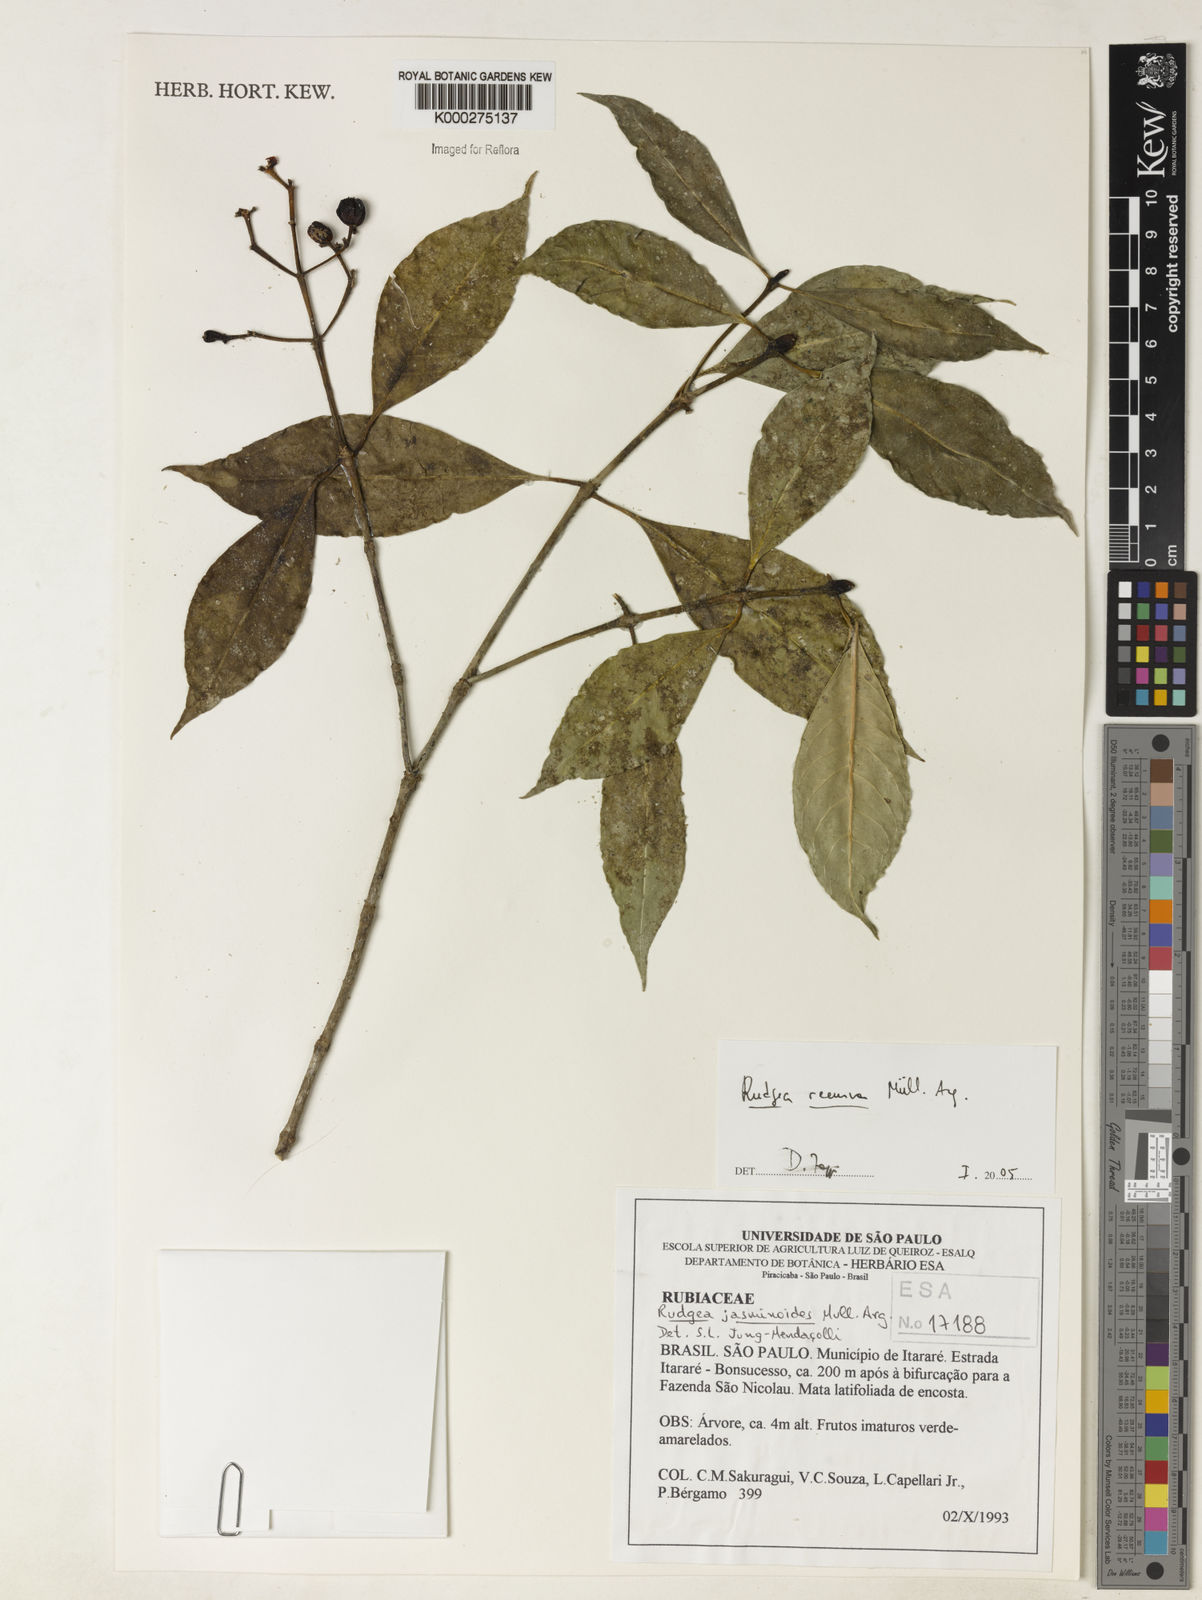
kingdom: Plantae
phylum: Tracheophyta
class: Magnoliopsida
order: Gentianales
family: Rubiaceae
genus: Rudgea
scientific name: Rudgea recurva
